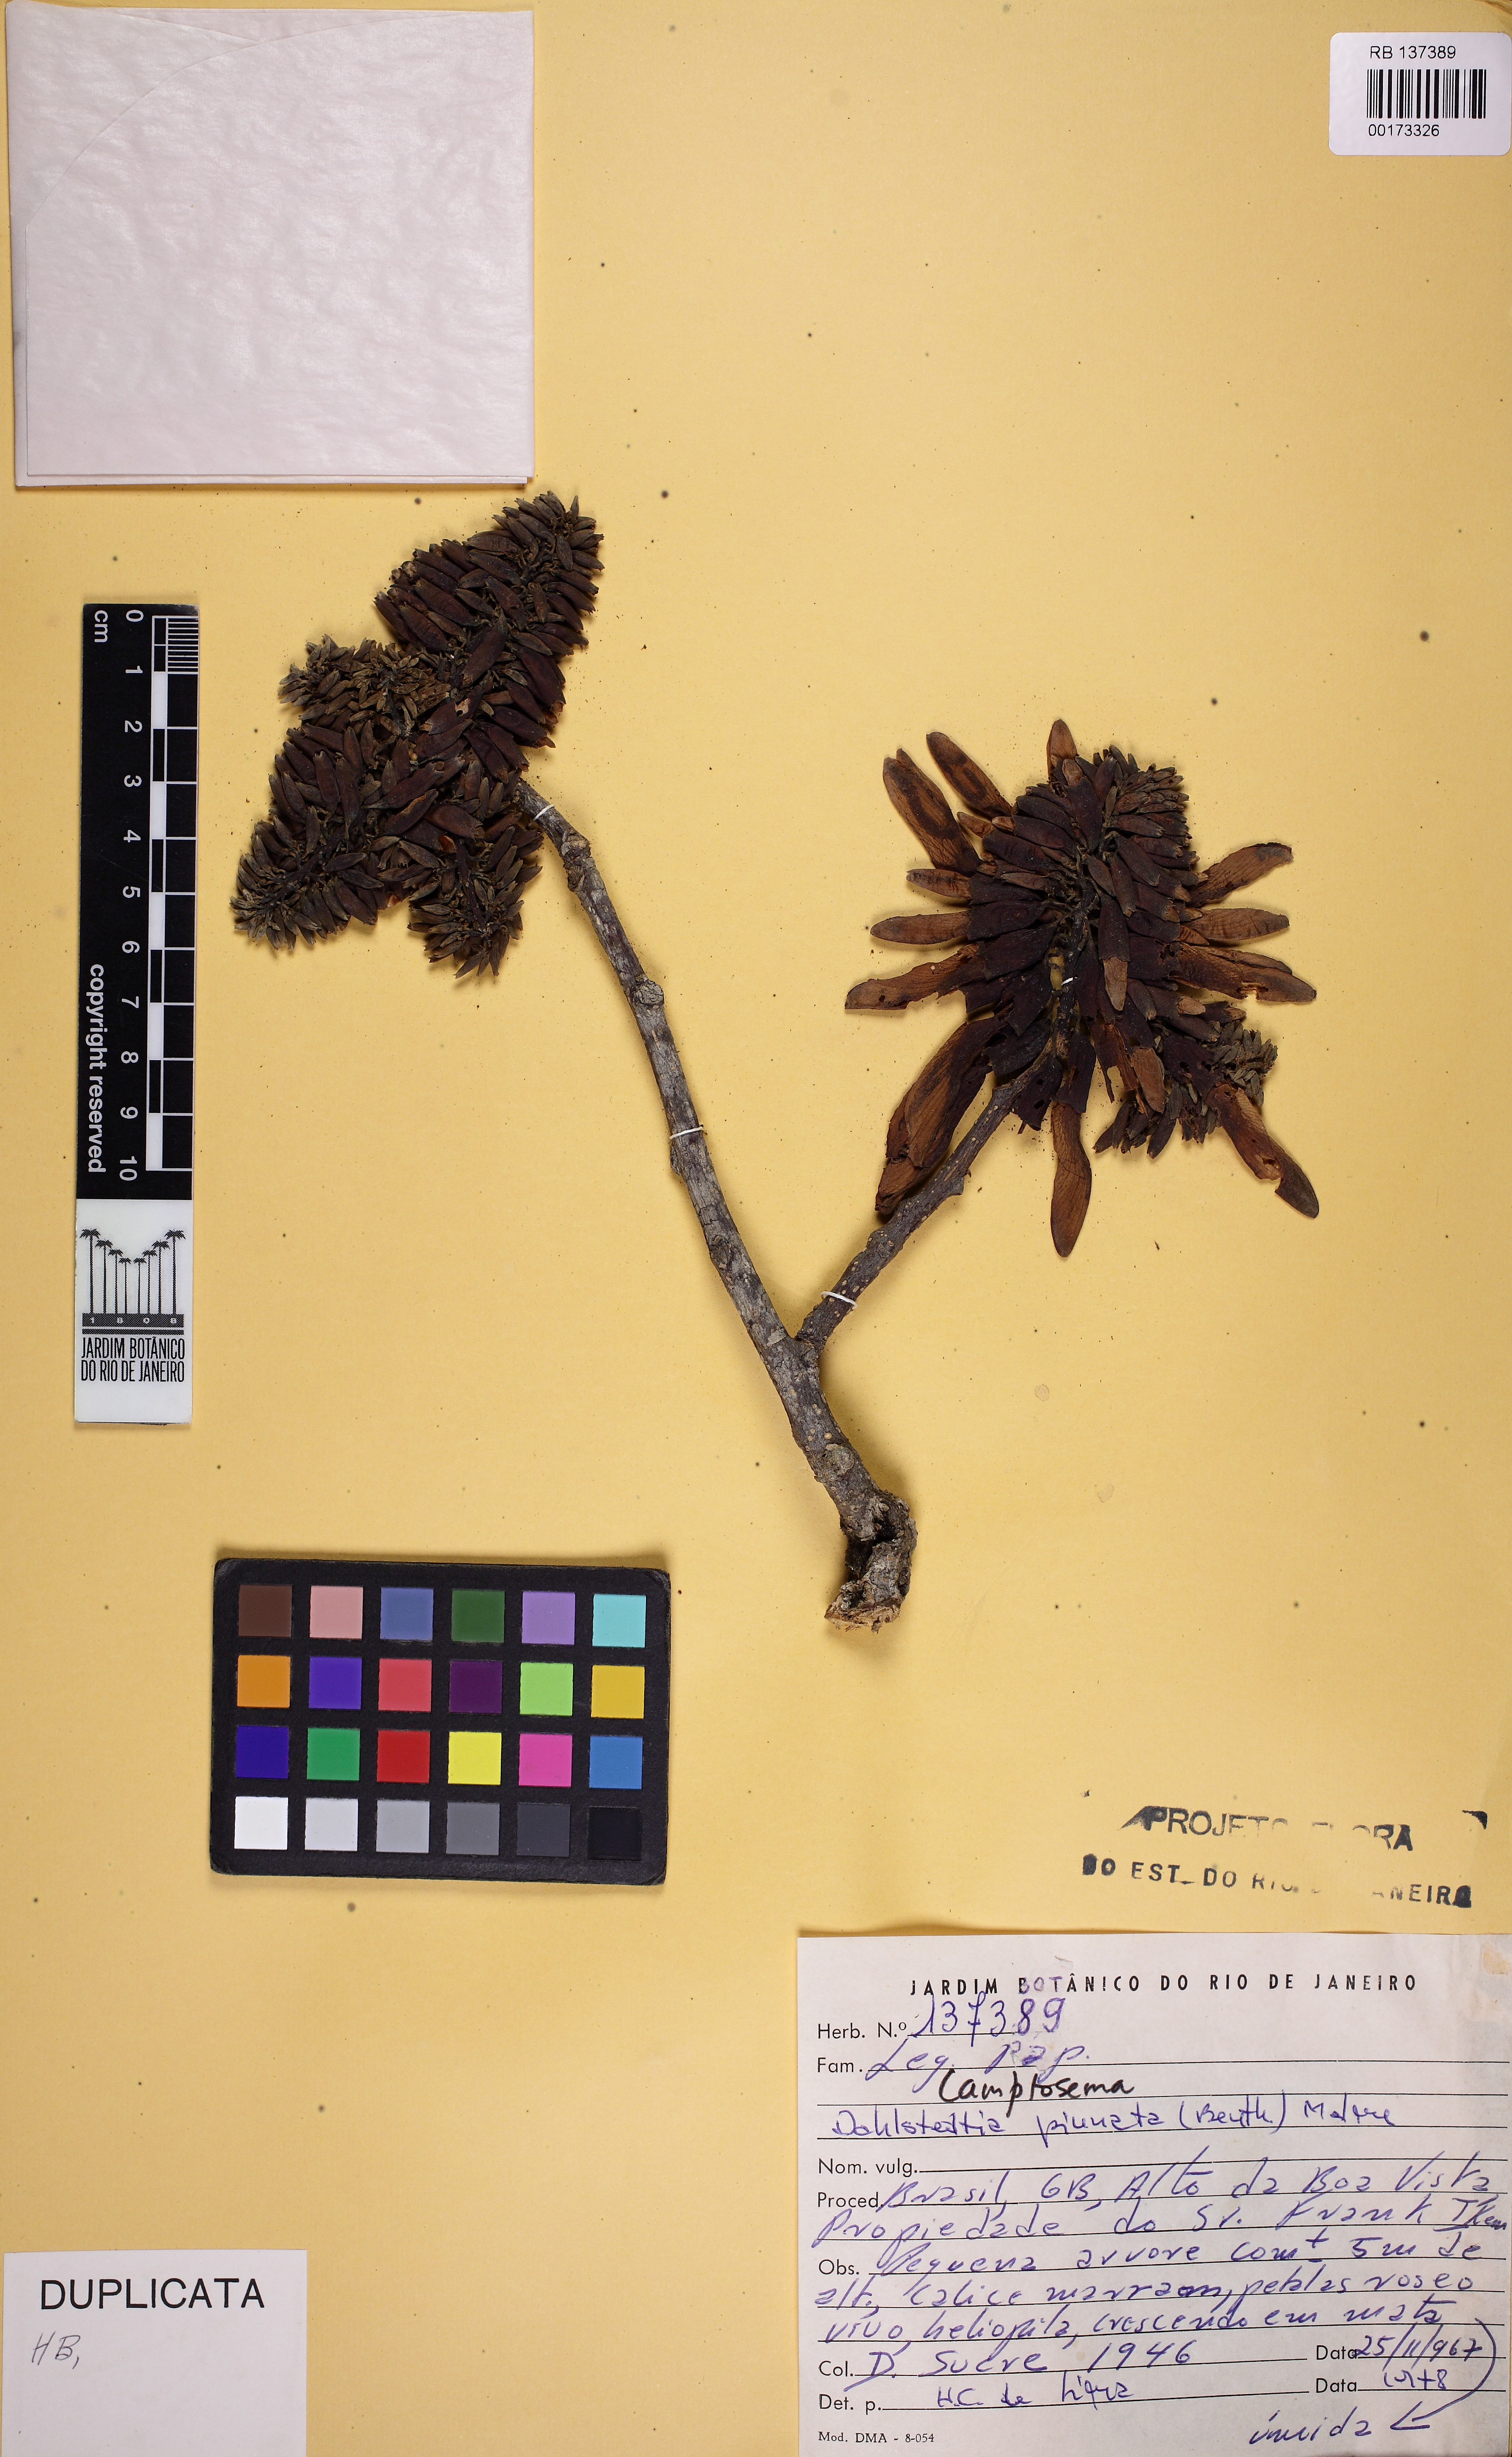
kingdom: Plantae
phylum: Tracheophyta
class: Magnoliopsida
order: Fabales
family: Fabaceae
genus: Dahlstedtia
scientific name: Dahlstedtia pinnata
